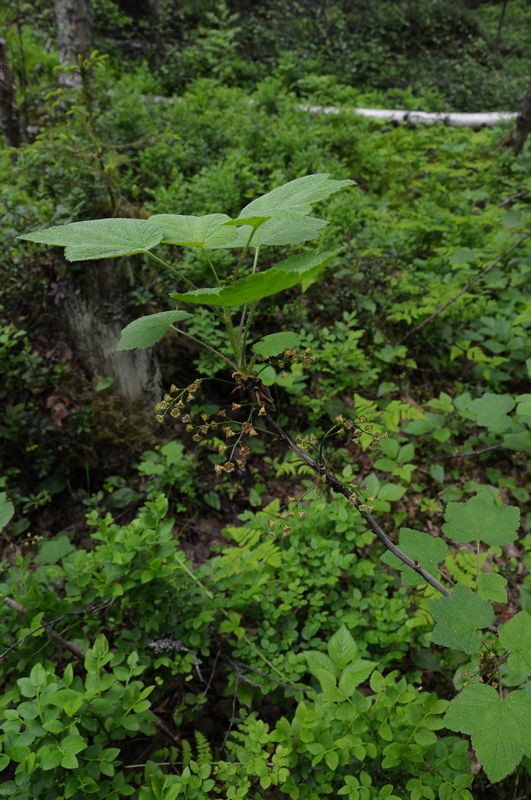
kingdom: Plantae
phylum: Tracheophyta
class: Magnoliopsida
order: Saxifragales
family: Grossulariaceae
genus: Ribes
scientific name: Ribes spicatum
